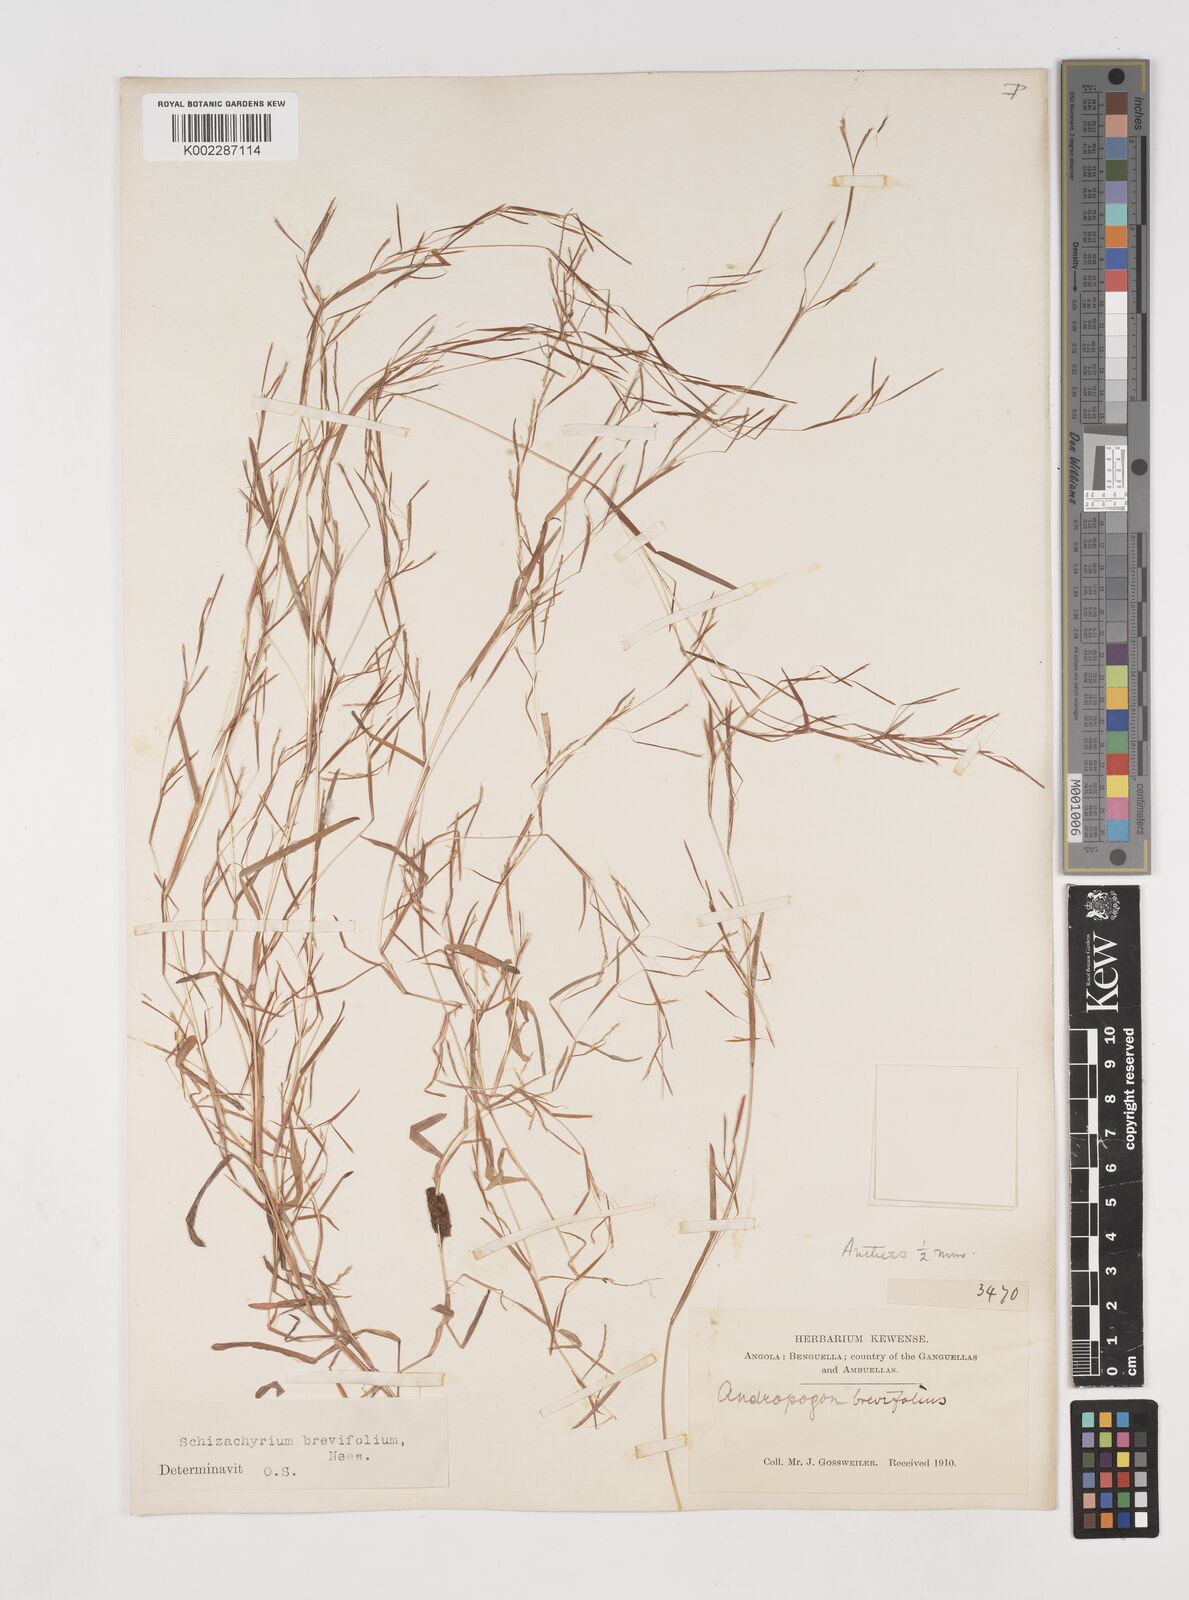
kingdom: Plantae
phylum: Tracheophyta
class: Liliopsida
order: Poales
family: Poaceae
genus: Schizachyrium
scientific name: Schizachyrium brevifolium
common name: Serillo dulce
